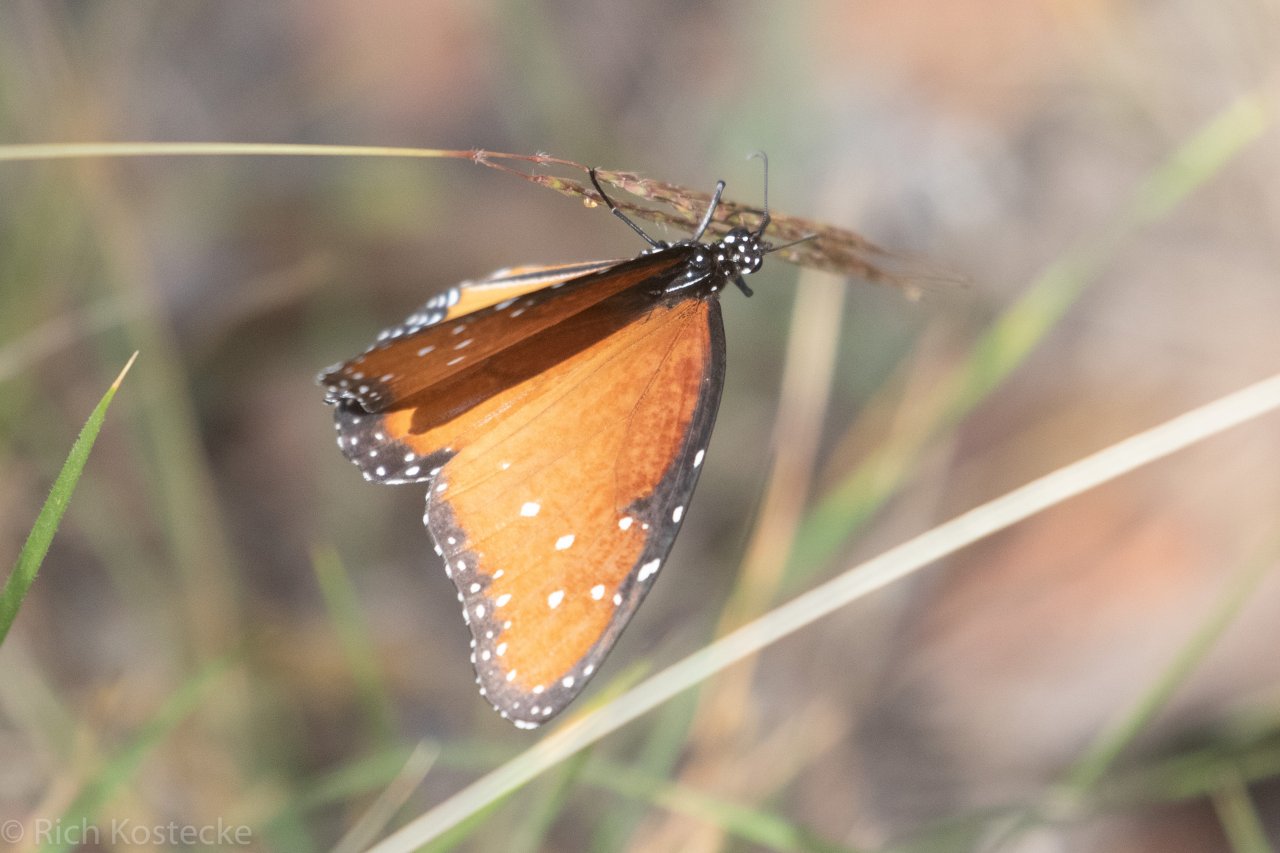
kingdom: Animalia
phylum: Arthropoda
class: Insecta
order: Lepidoptera
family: Nymphalidae
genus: Danaus
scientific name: Danaus gilippus
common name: Queen
